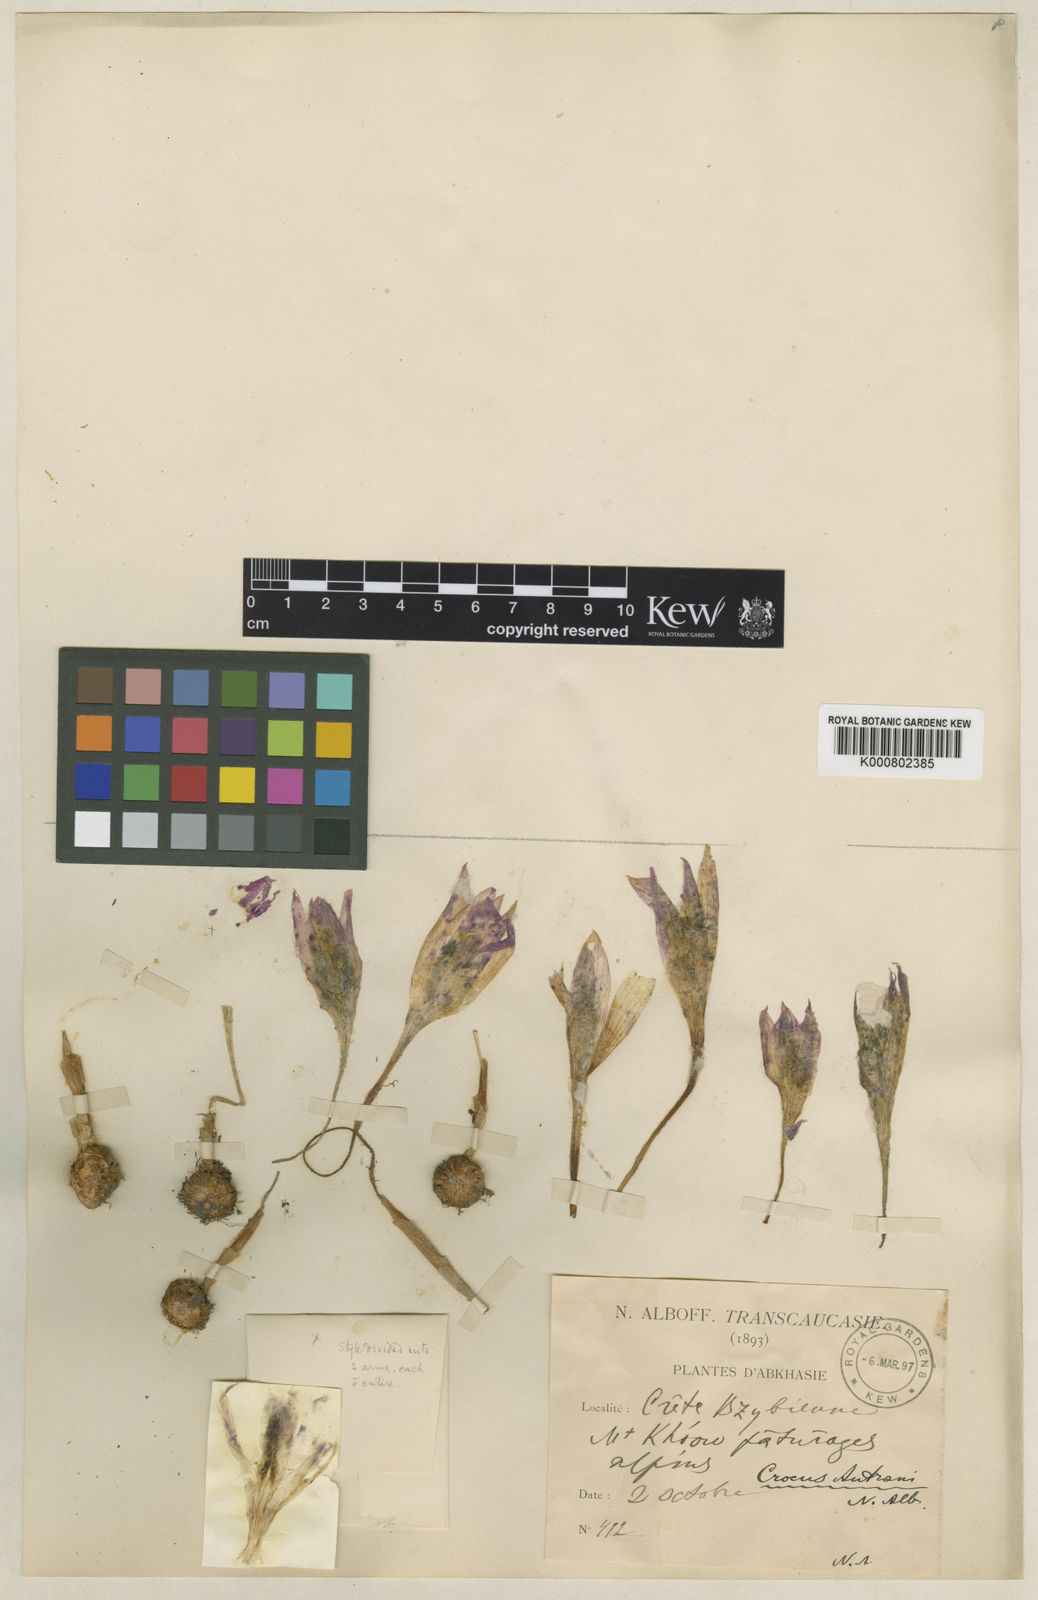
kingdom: Plantae
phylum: Tracheophyta
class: Liliopsida
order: Asparagales
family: Iridaceae
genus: Crocus
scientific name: Crocus autranii
